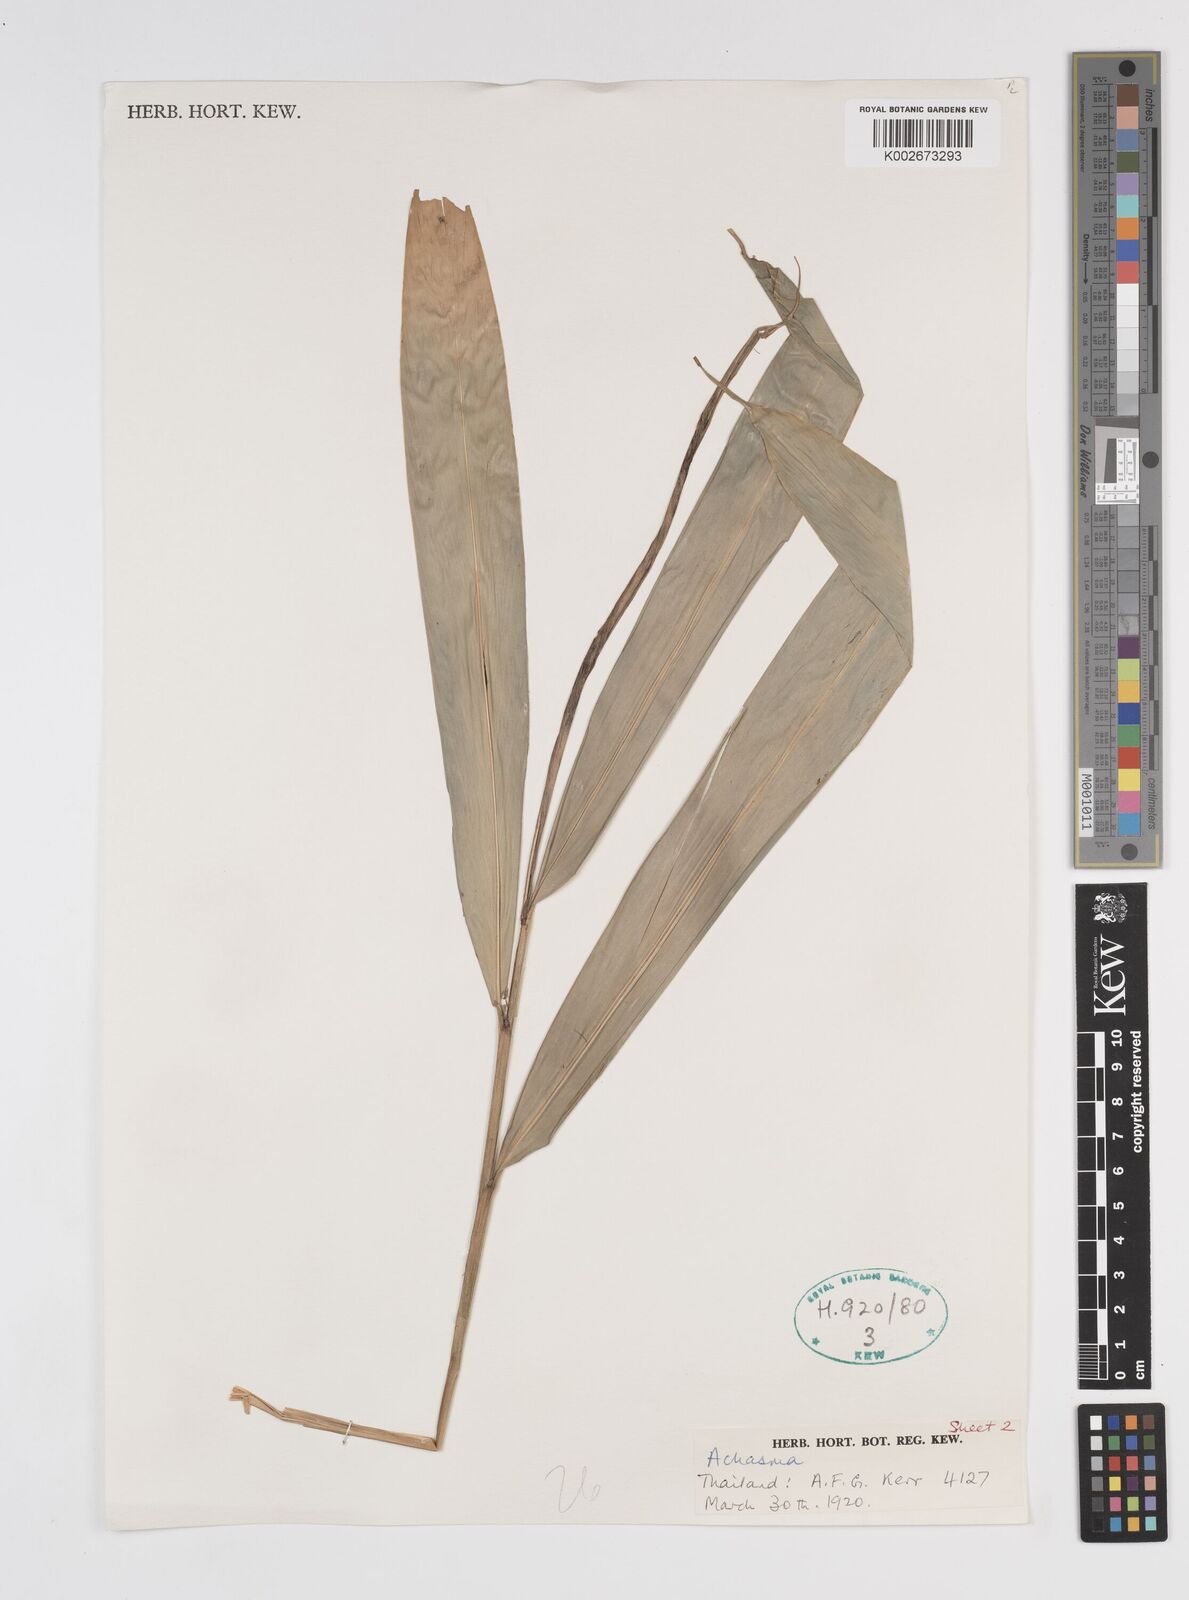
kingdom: Plantae
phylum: Tracheophyta
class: Liliopsida
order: Zingiberales
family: Zingiberaceae
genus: Amomum
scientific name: Amomum
